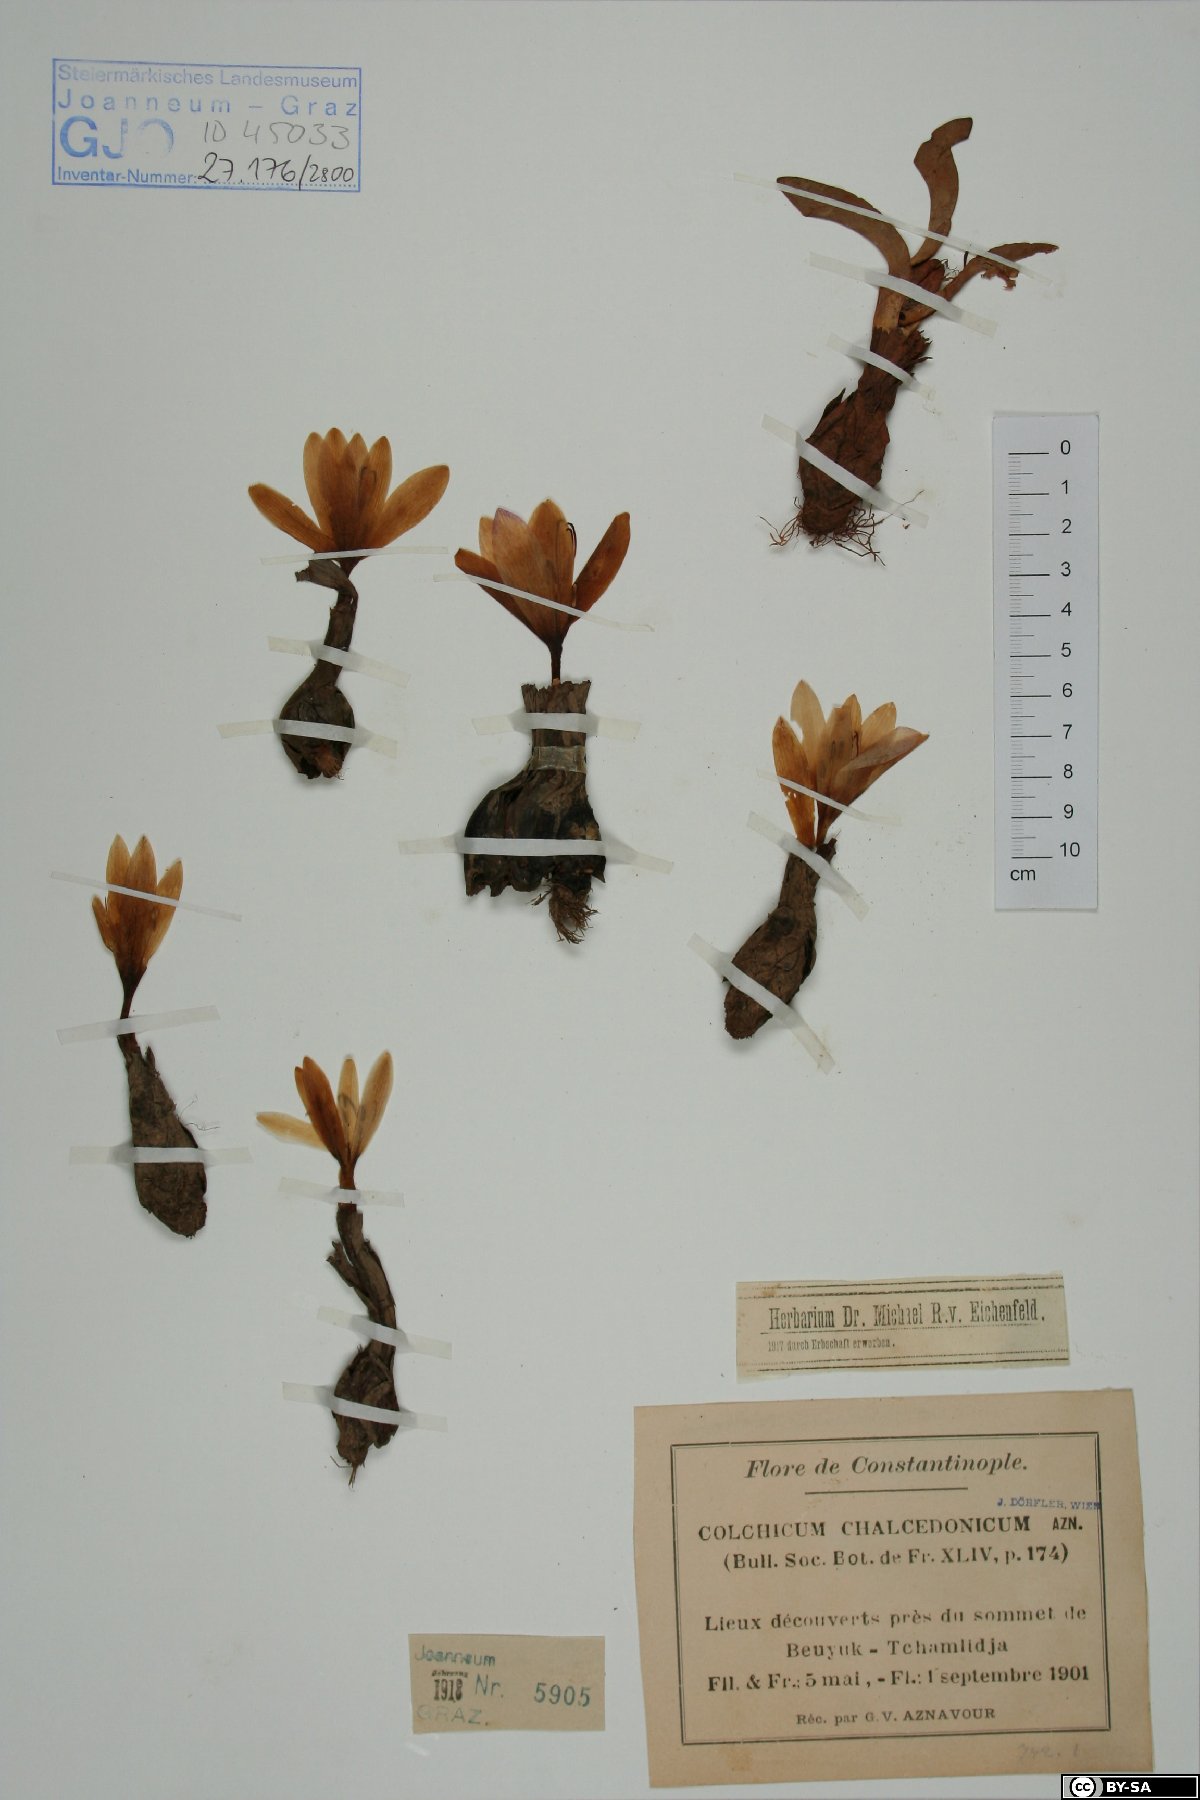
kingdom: Plantae
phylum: Tracheophyta
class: Liliopsida
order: Liliales
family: Colchicaceae
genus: Colchicum
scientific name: Colchicum chalcedonicum
